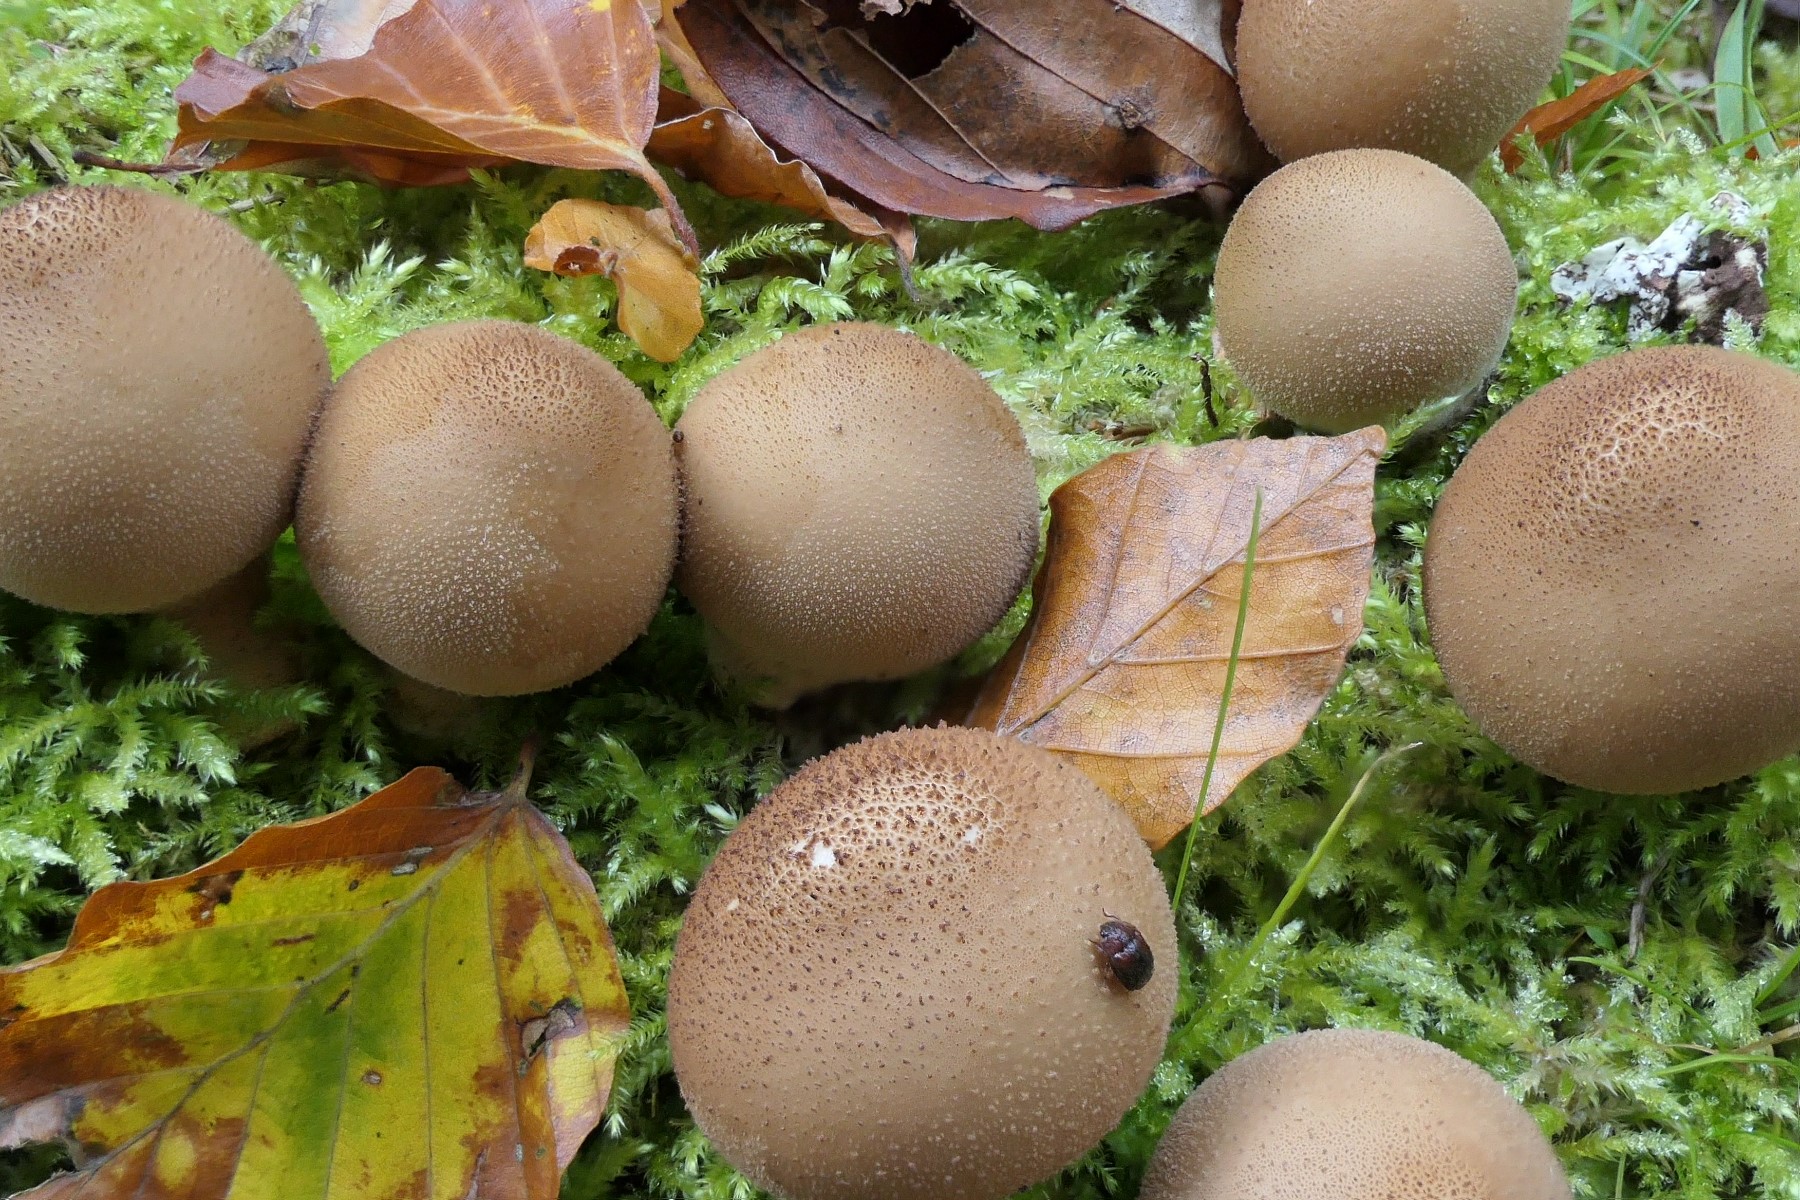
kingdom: Fungi
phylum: Basidiomycota
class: Agaricomycetes
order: Agaricales
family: Lycoperdaceae
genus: Apioperdon
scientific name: Apioperdon pyriforme
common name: pære-støvbold
